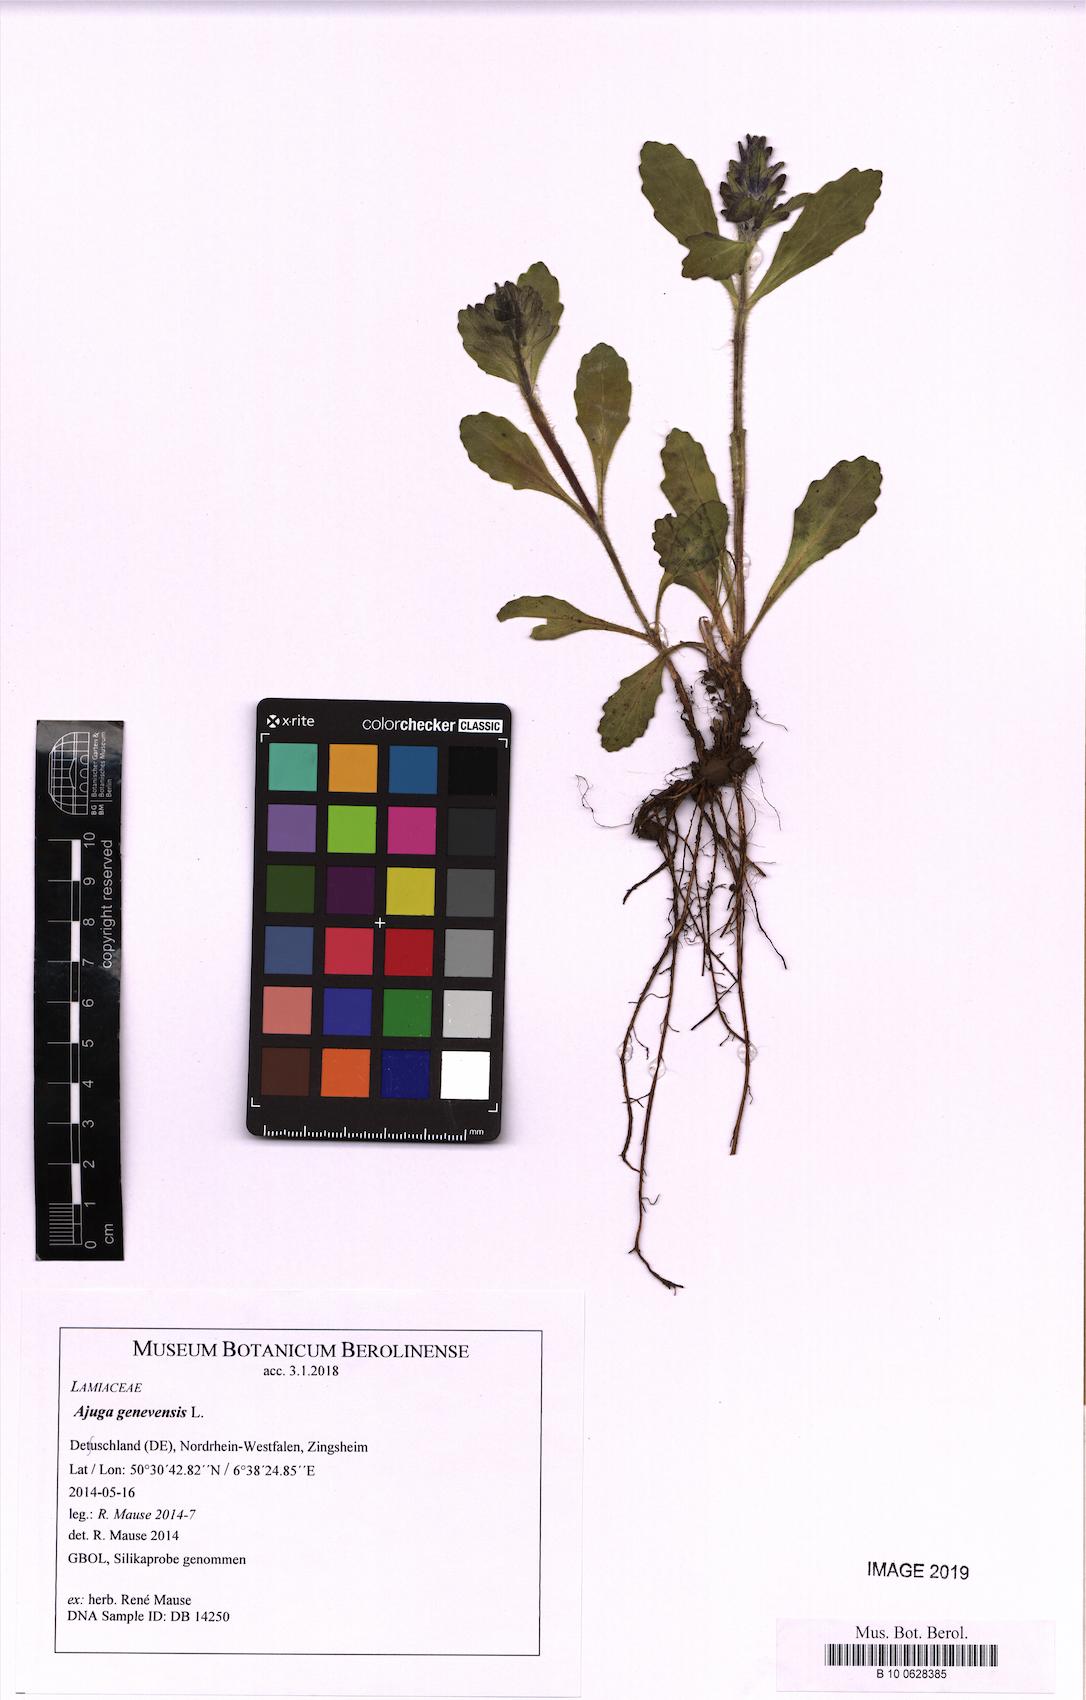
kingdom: Plantae
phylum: Tracheophyta
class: Magnoliopsida
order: Lamiales
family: Lamiaceae
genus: Ajuga
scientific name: Ajuga genevensis
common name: Blue bugle
